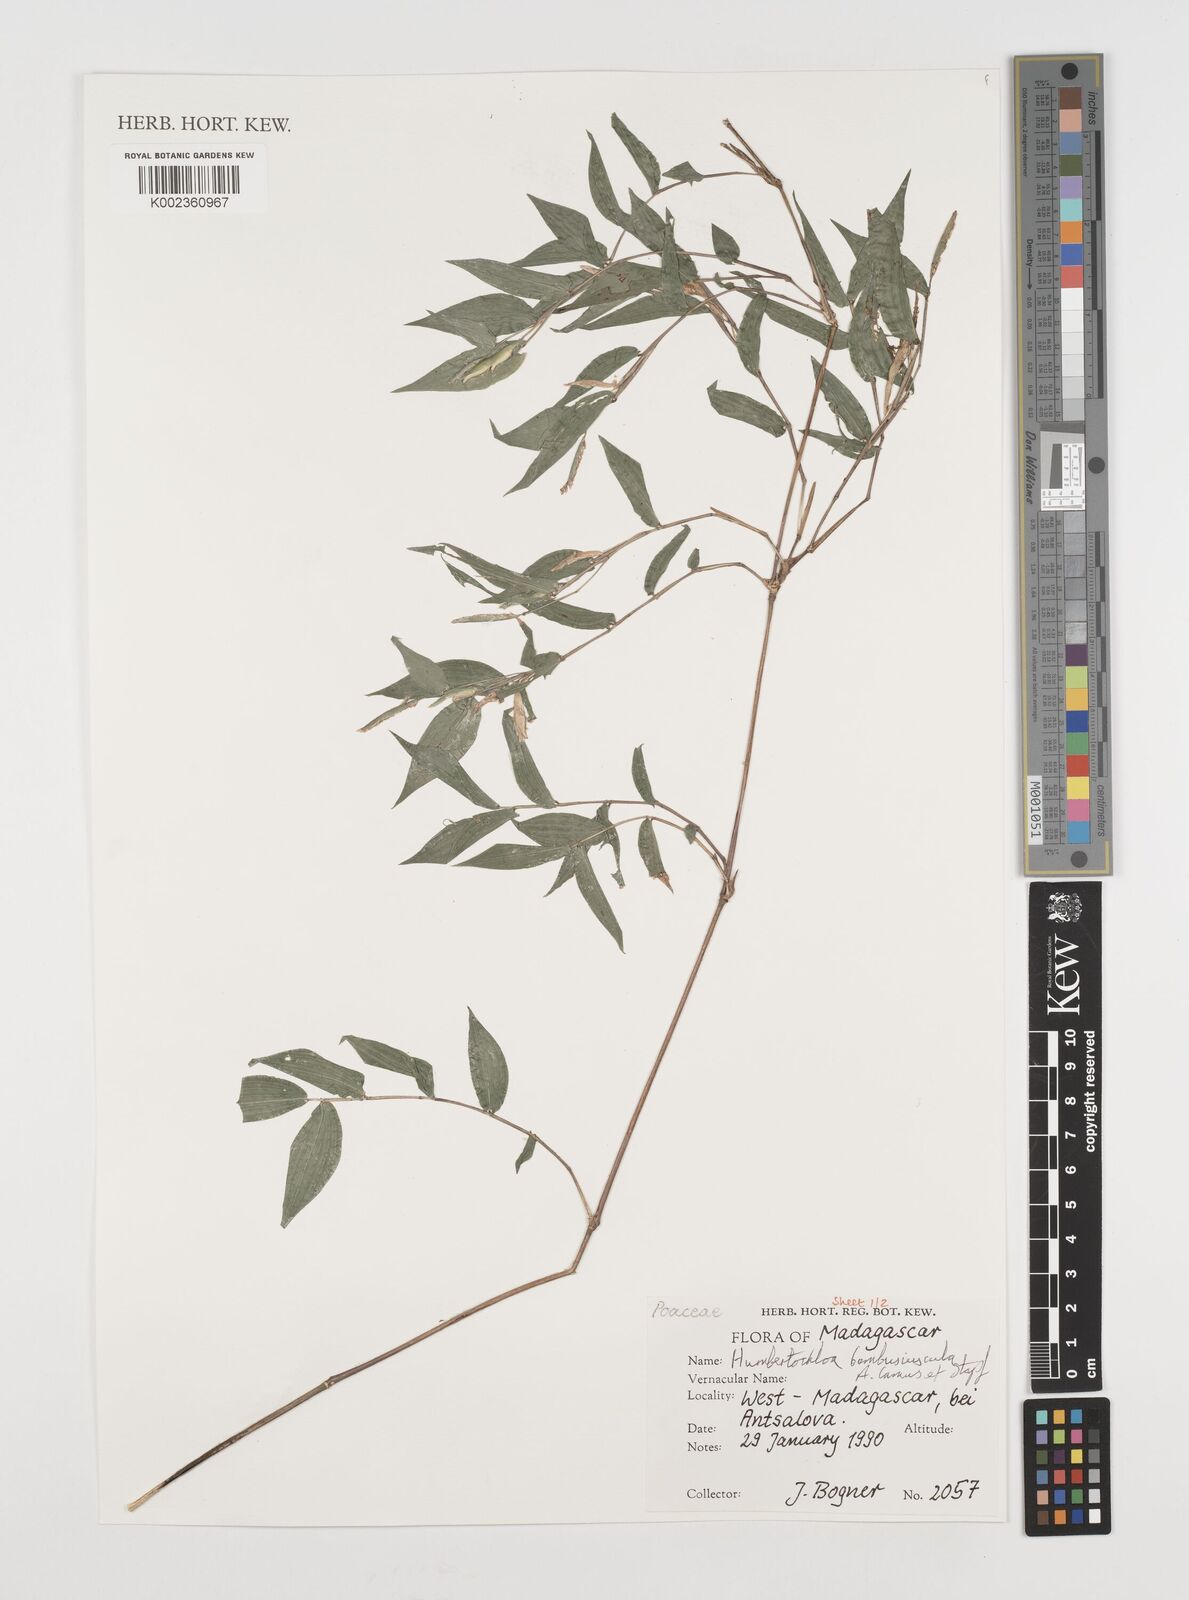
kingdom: Plantae
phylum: Tracheophyta
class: Liliopsida
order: Poales
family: Poaceae
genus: Humbertochloa
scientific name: Humbertochloa bambusiuscula
